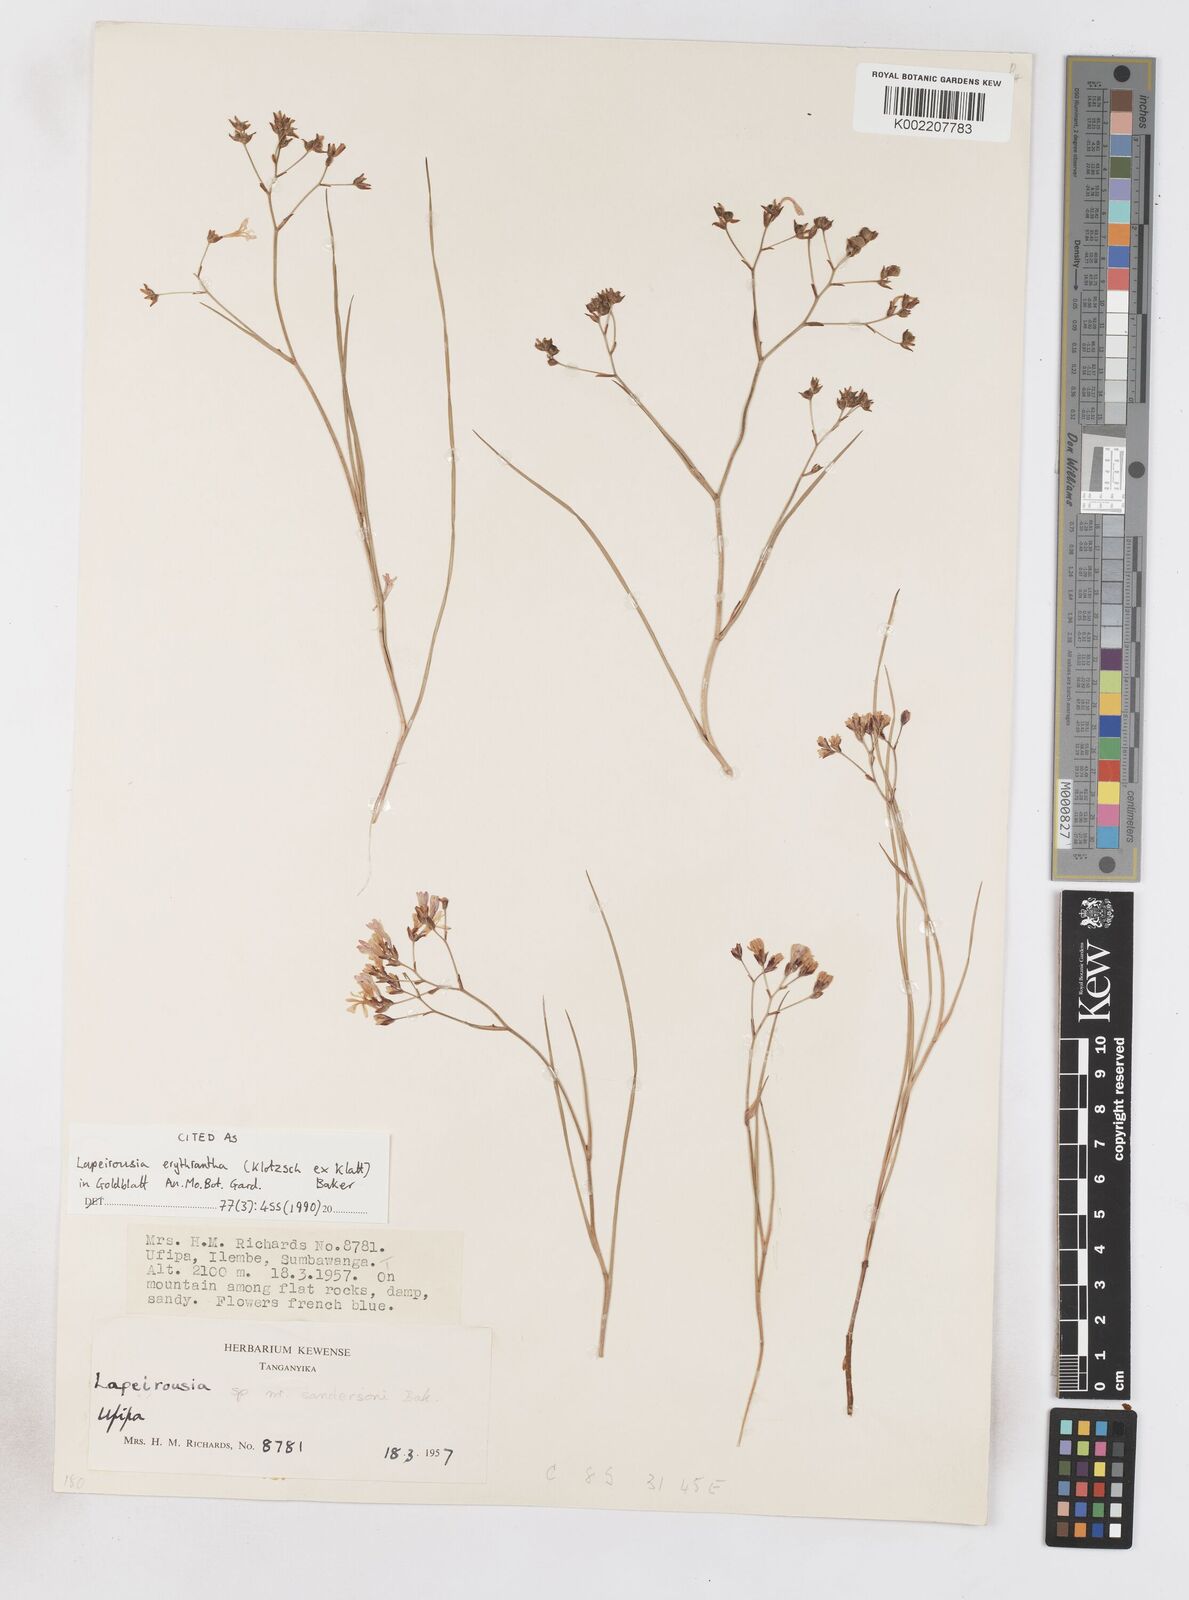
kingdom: Plantae
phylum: Tracheophyta
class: Liliopsida
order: Asparagales
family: Iridaceae
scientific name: Iridaceae
